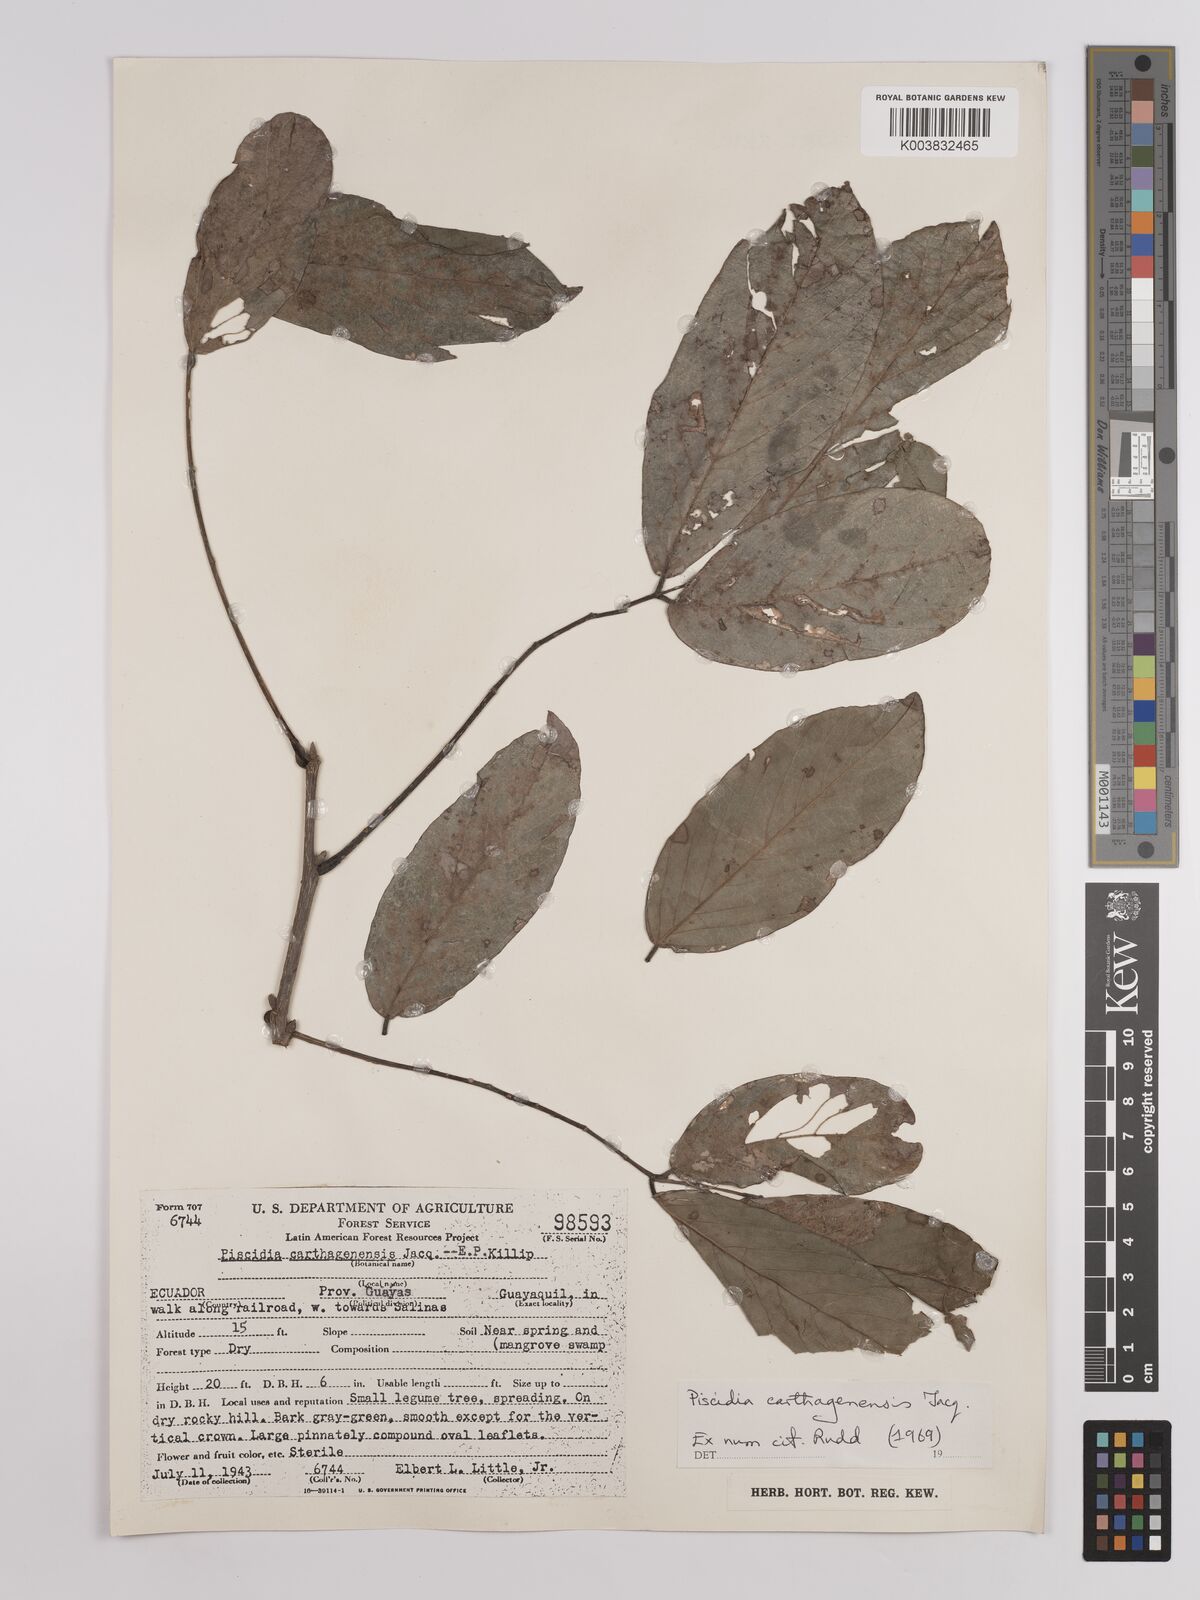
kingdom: Plantae
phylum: Tracheophyta
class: Magnoliopsida
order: Fabales
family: Fabaceae
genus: Piscidia
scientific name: Piscidia carthagenensis
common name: Stinkwood
